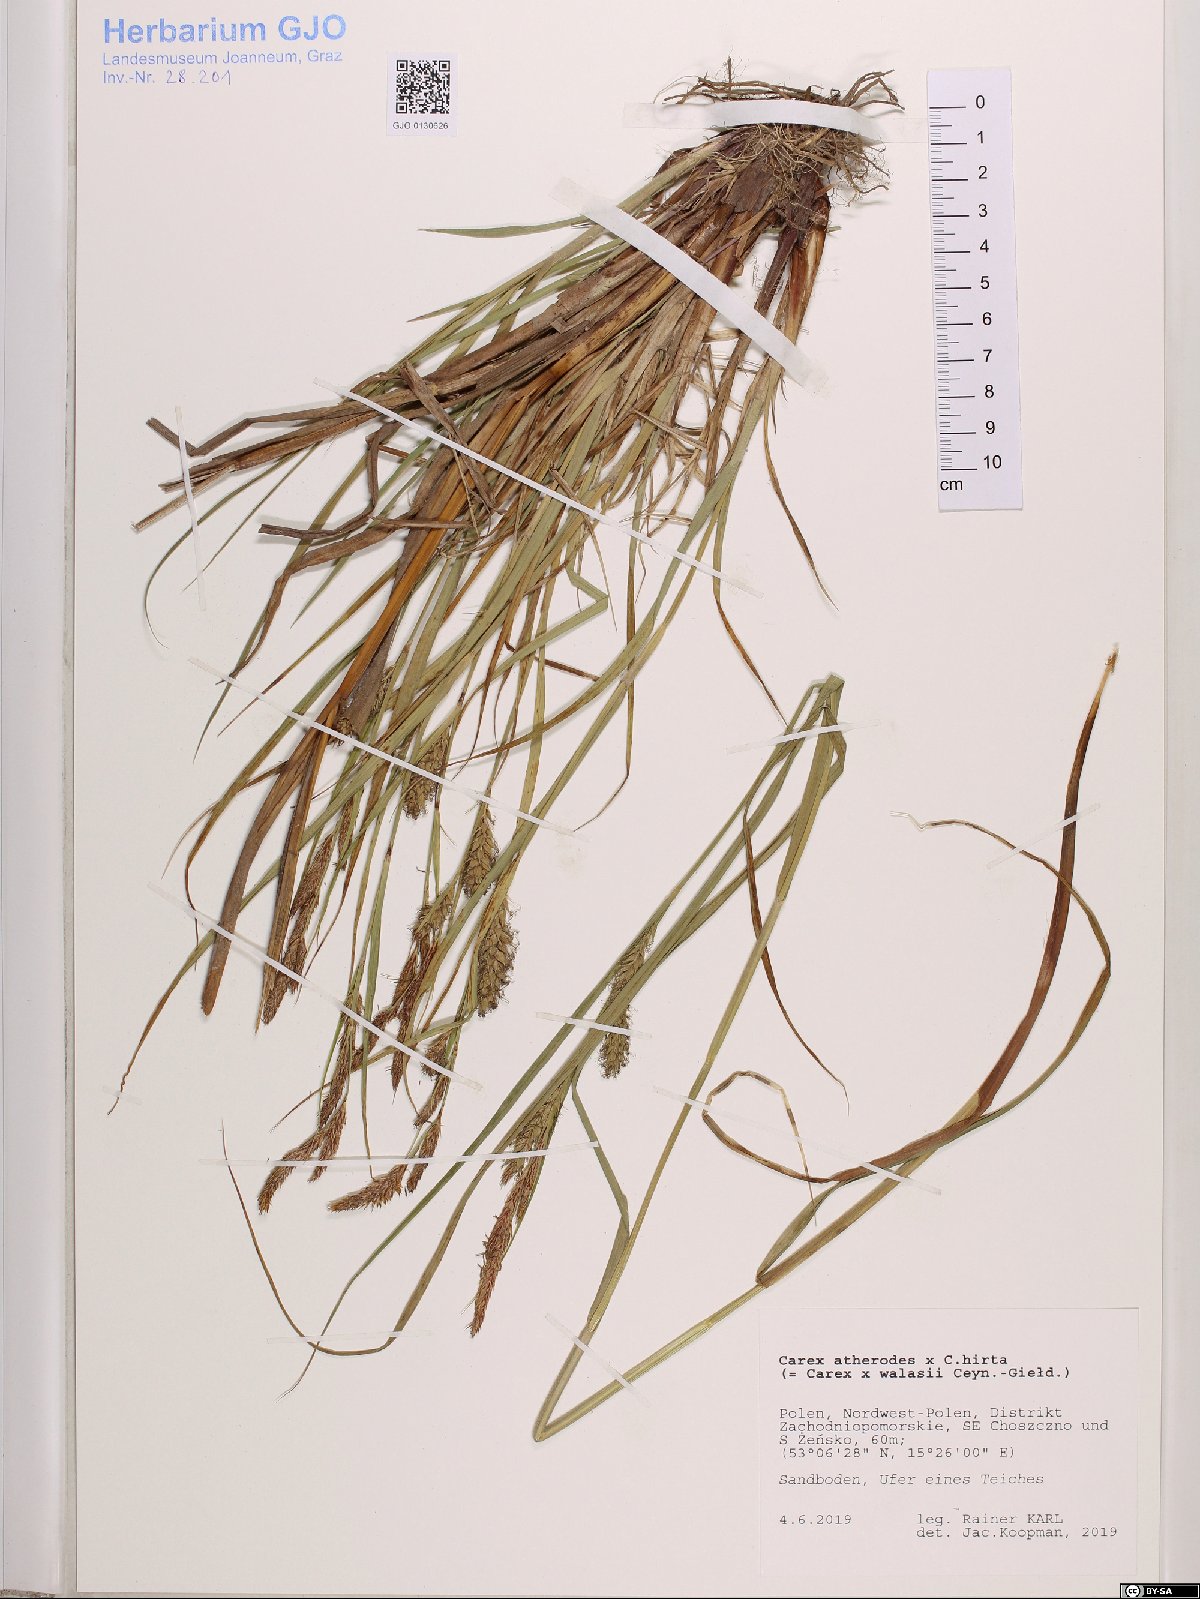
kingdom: Plantae
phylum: Tracheophyta
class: Liliopsida
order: Poales
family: Cyperaceae
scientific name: Cyperaceae
